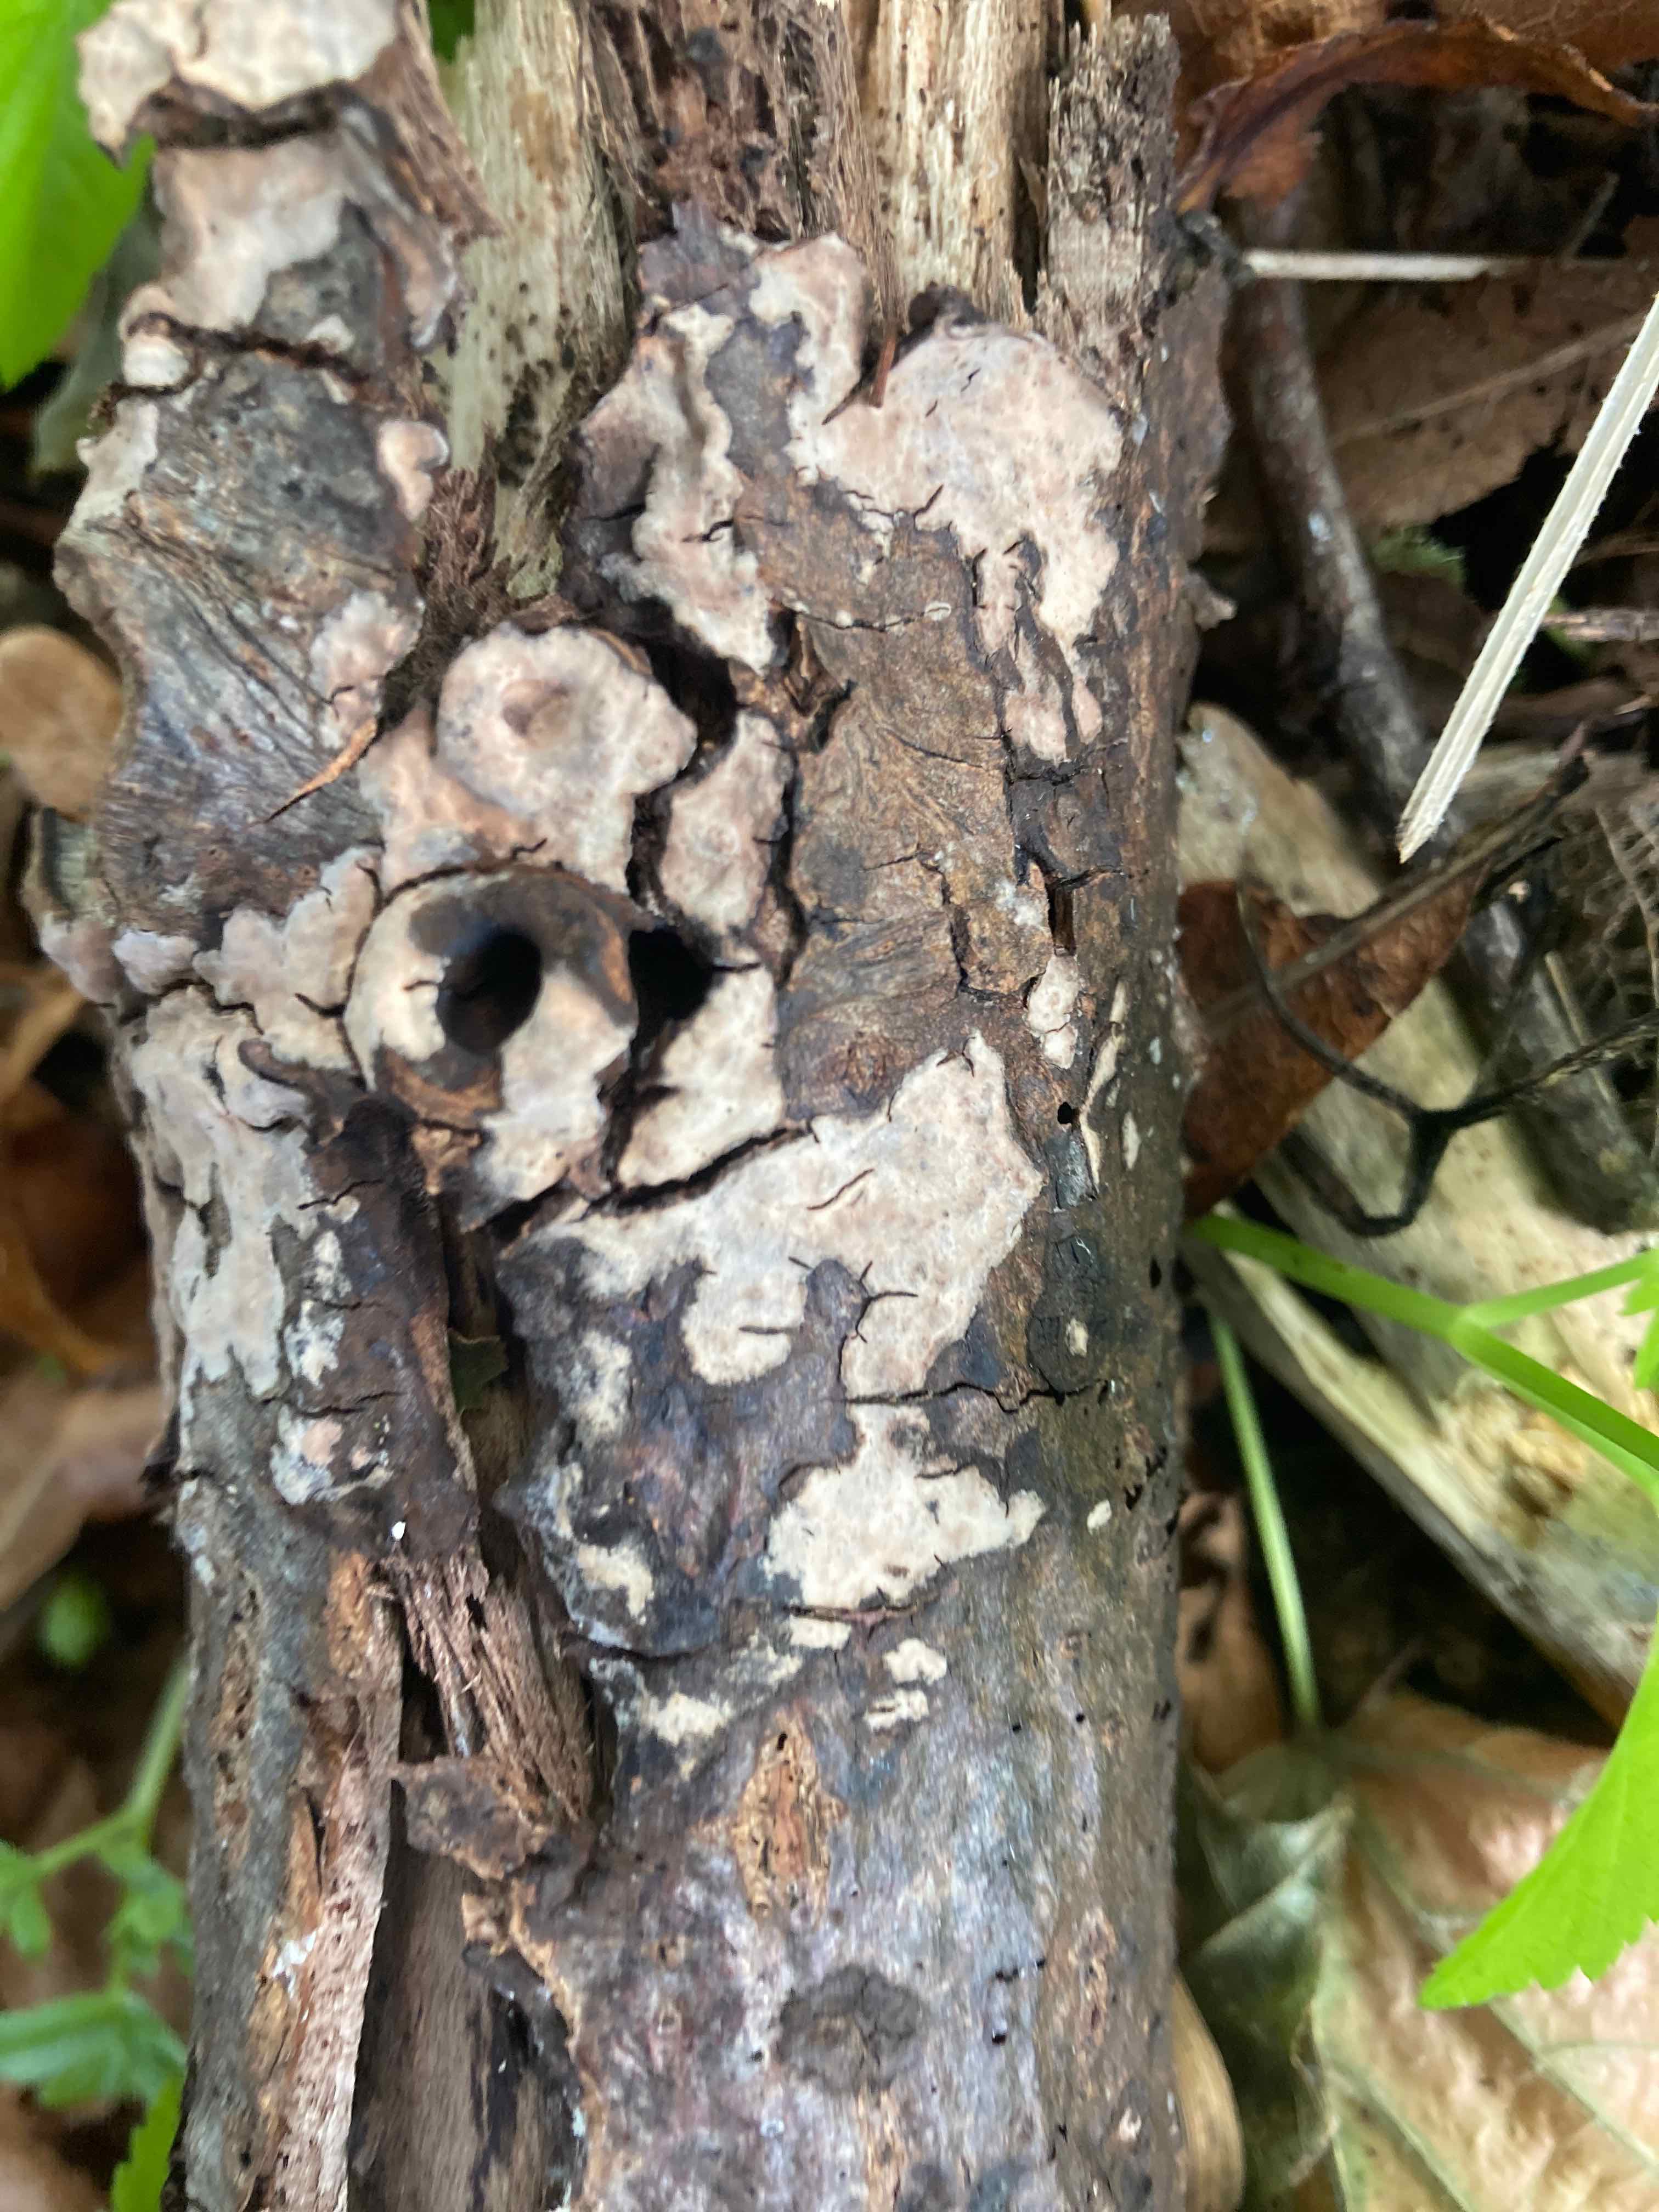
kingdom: Fungi
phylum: Basidiomycota
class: Agaricomycetes
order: Russulales
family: Peniophoraceae
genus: Peniophora
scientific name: Peniophora rufomarginata
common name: linde-voksskind
